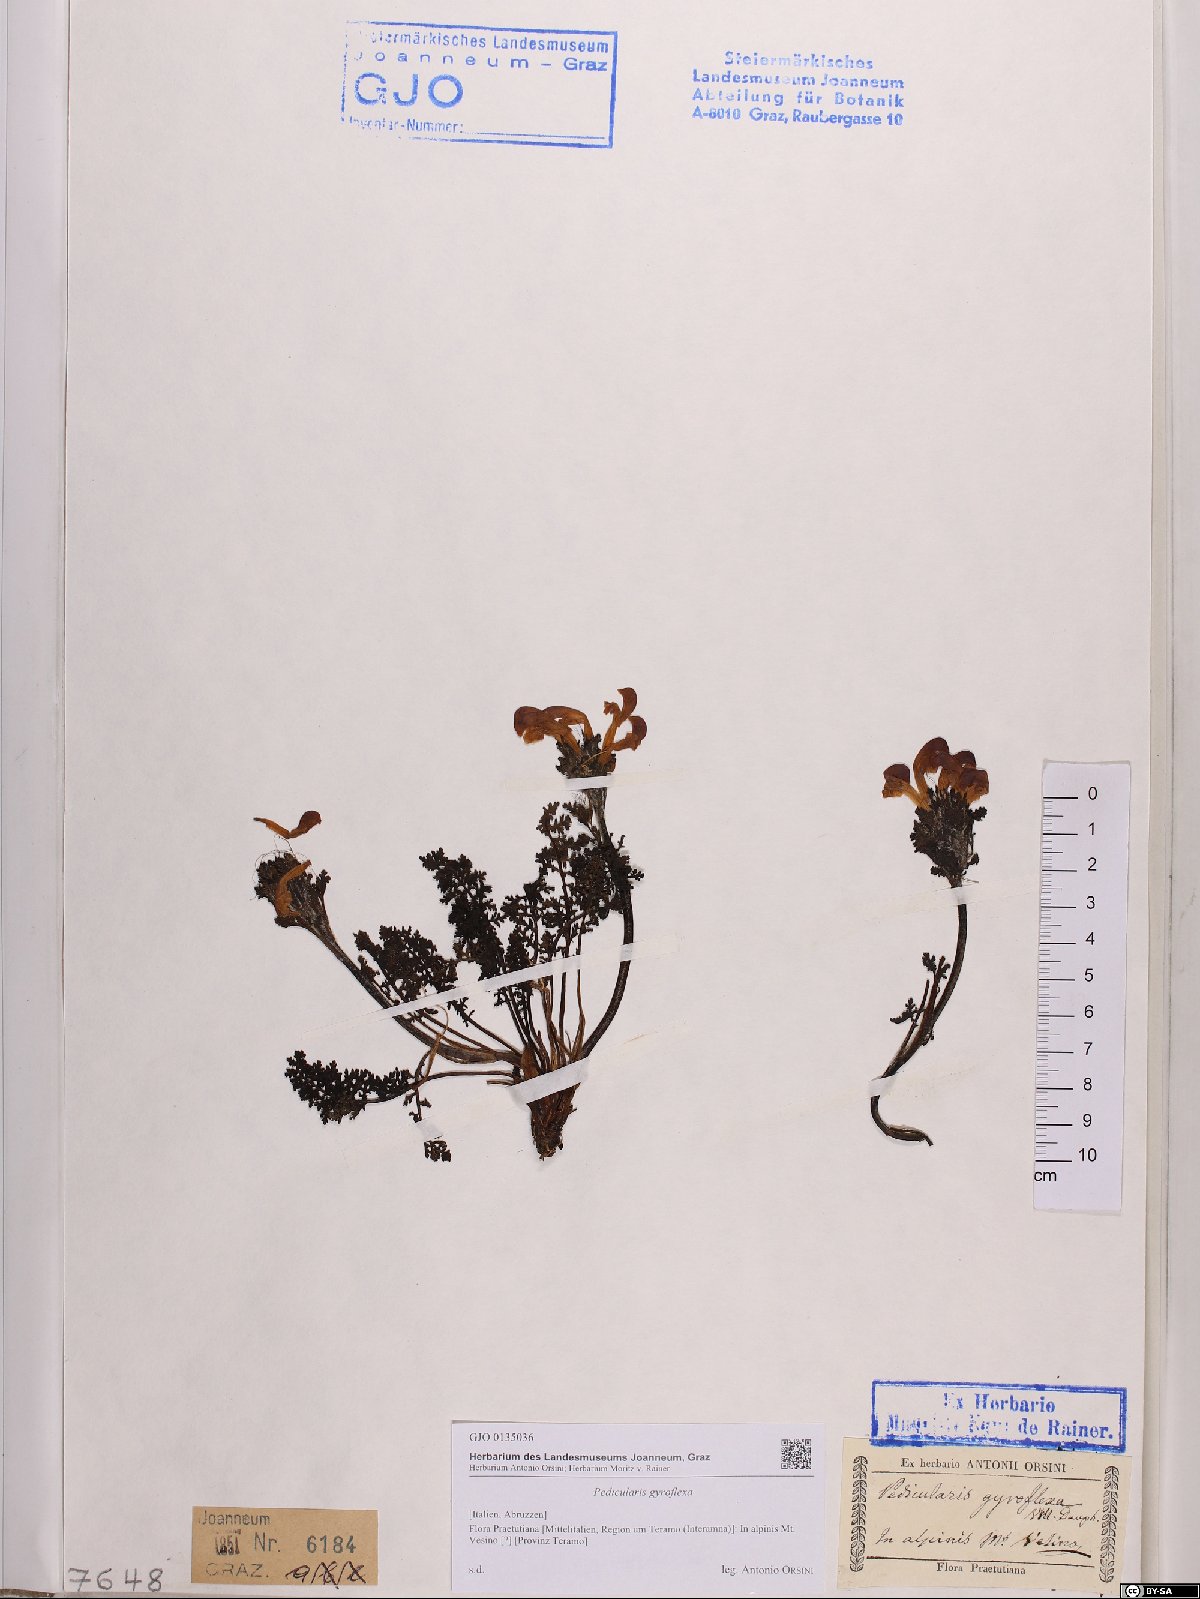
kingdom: Plantae
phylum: Tracheophyta
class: Magnoliopsida
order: Lamiales
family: Orobanchaceae
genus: Pedicularis
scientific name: Pedicularis gyroflexa
